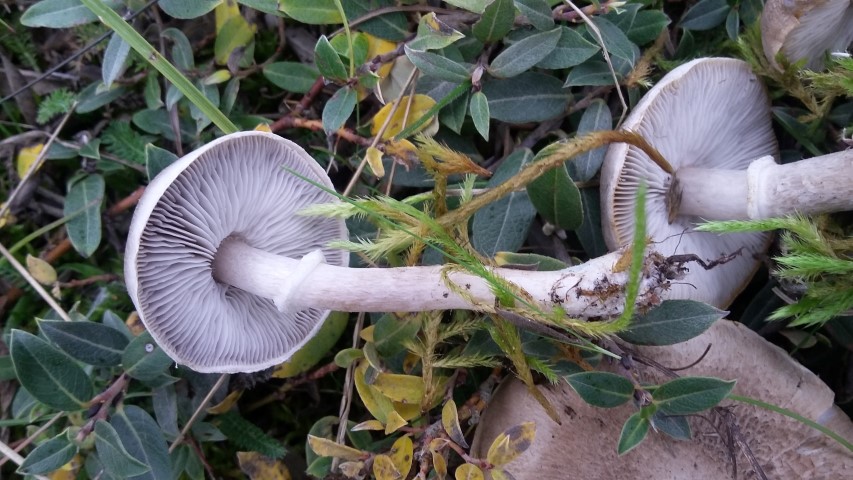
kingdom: Fungi
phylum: Basidiomycota
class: Agaricomycetes
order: Agaricales
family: Tricholomataceae
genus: Tricholoma
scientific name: Tricholoma cingulatum
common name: ring-ridderhat
